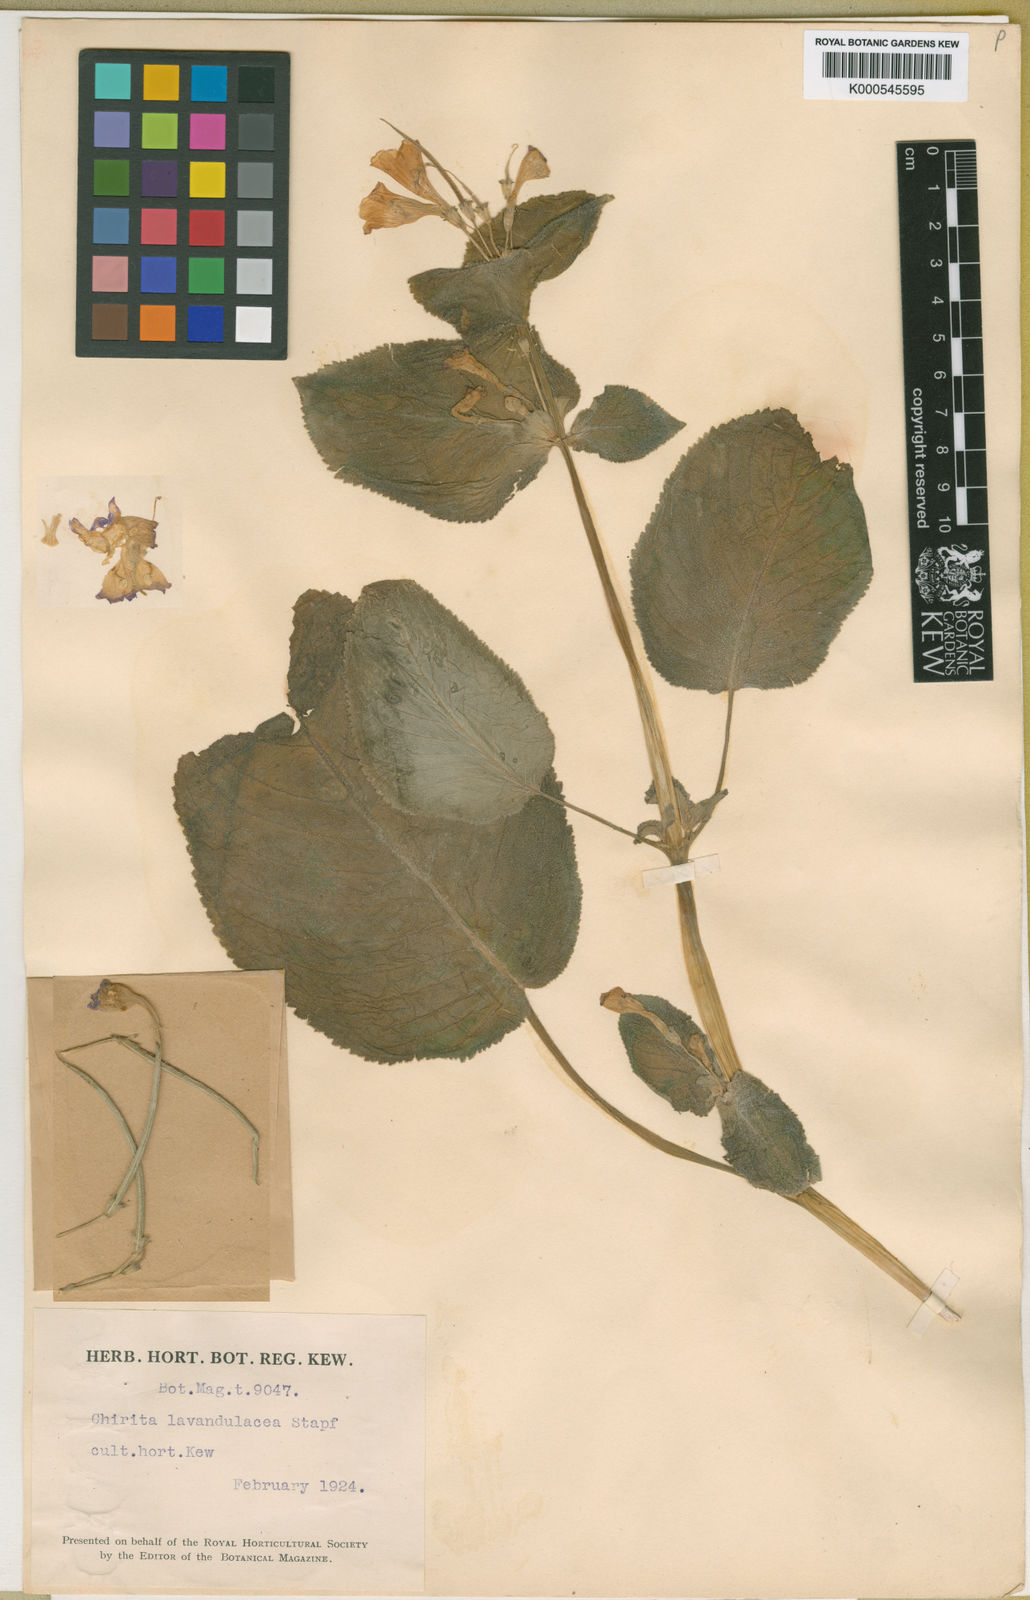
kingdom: Plantae
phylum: Tracheophyta
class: Magnoliopsida
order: Lamiales
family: Gesneriaceae
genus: Microchirita
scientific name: Microchirita lavandulacea
